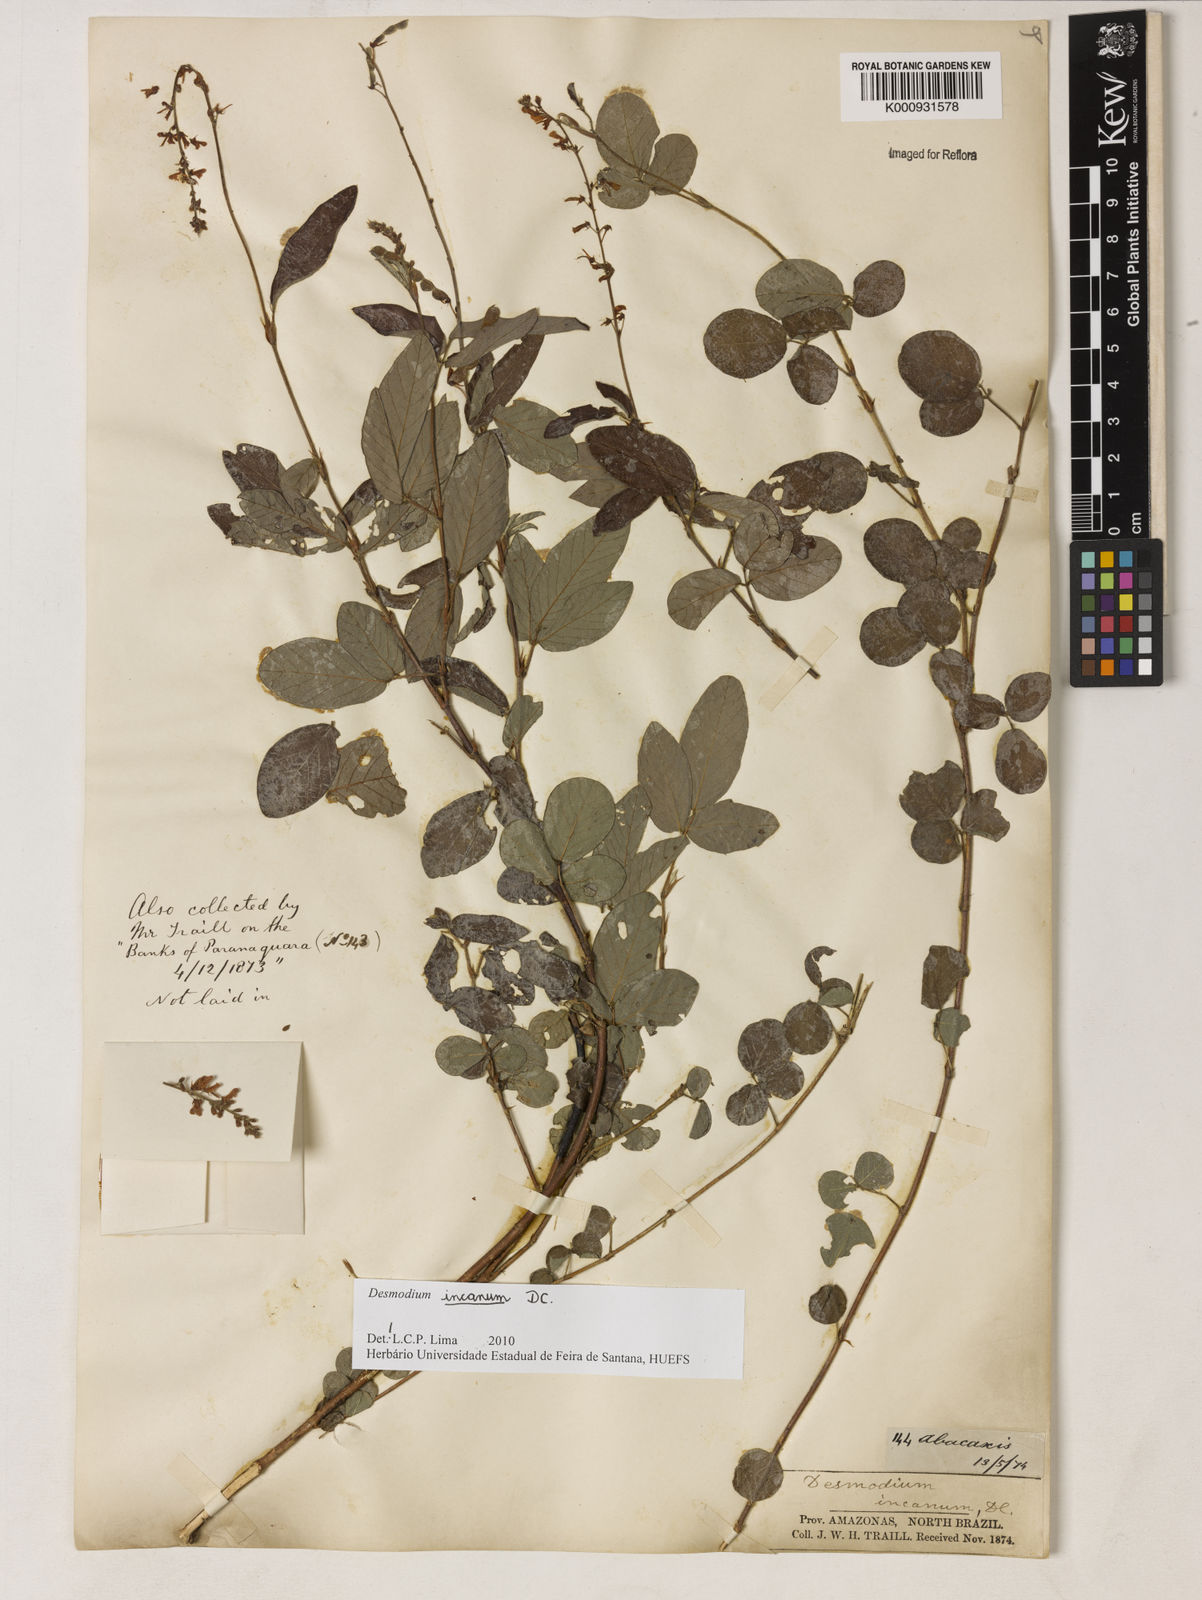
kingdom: Plantae
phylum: Tracheophyta
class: Magnoliopsida
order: Fabales
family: Fabaceae
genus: Desmodium
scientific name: Desmodium incanum
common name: Tickclover
